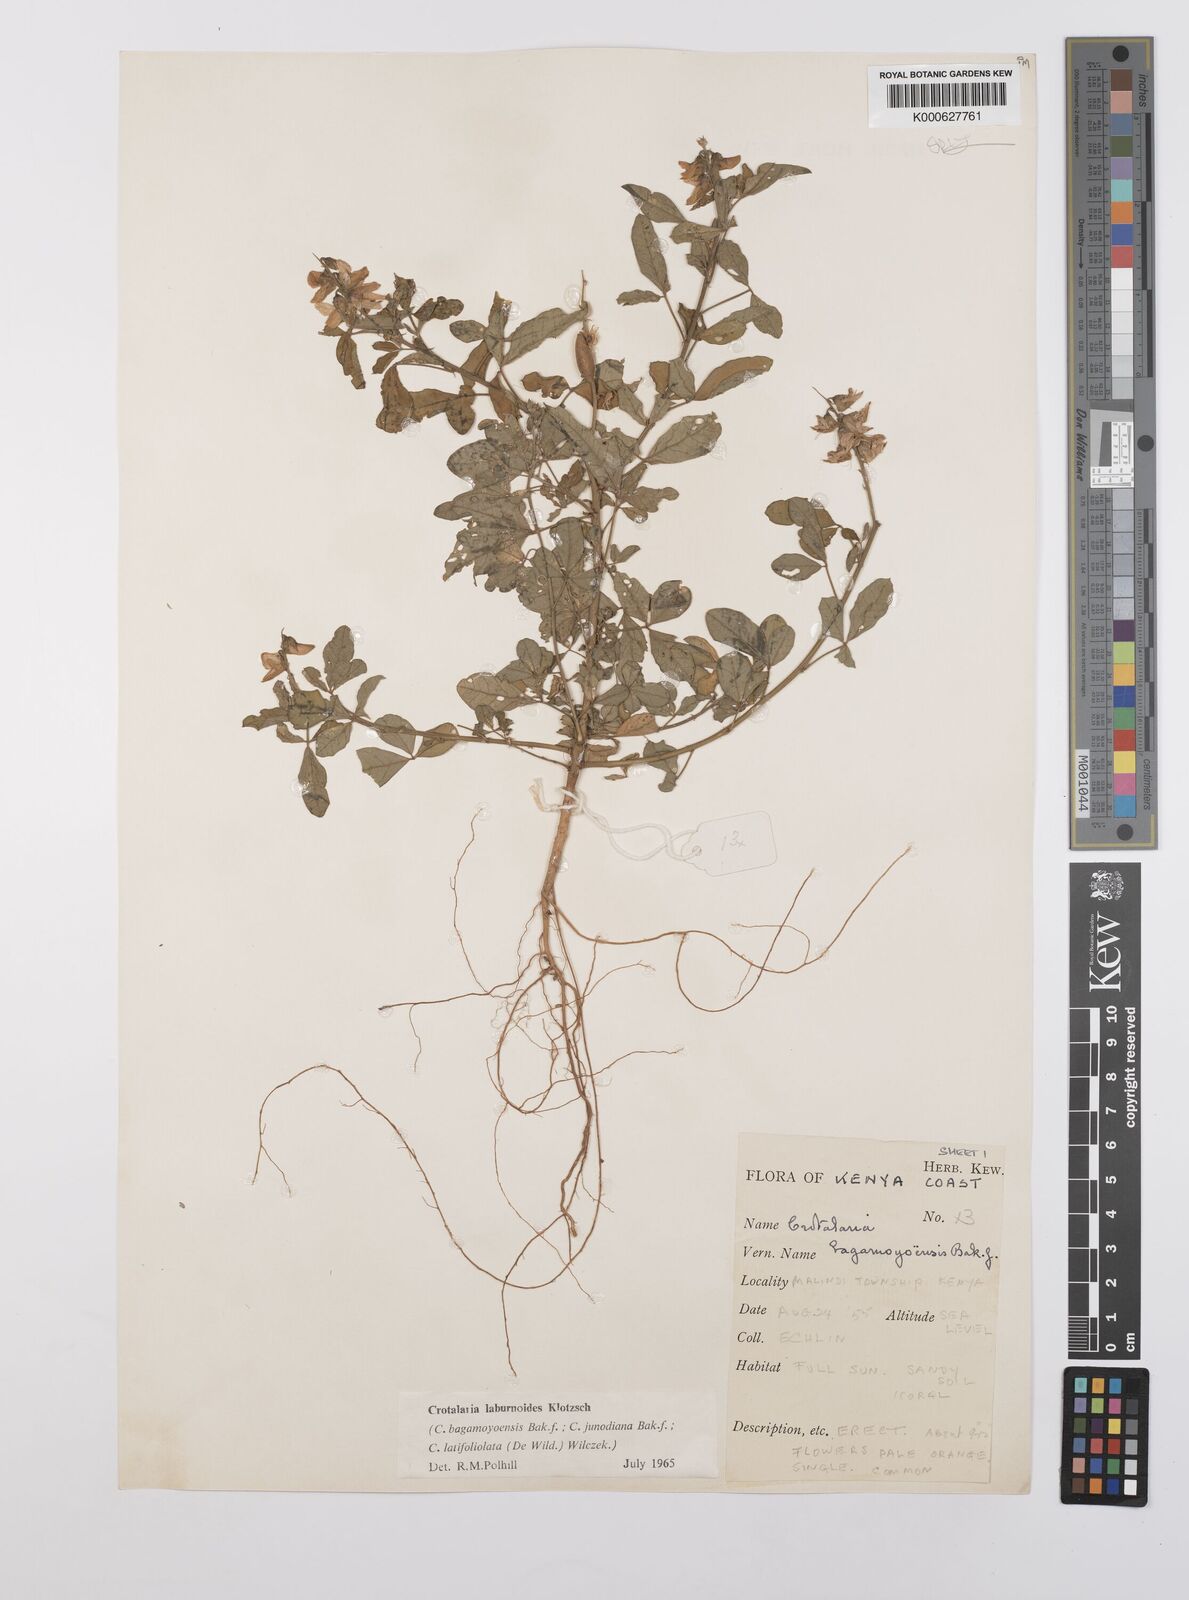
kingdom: Plantae
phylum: Tracheophyta
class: Magnoliopsida
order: Fabales
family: Fabaceae
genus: Crotalaria
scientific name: Crotalaria laburnoides
